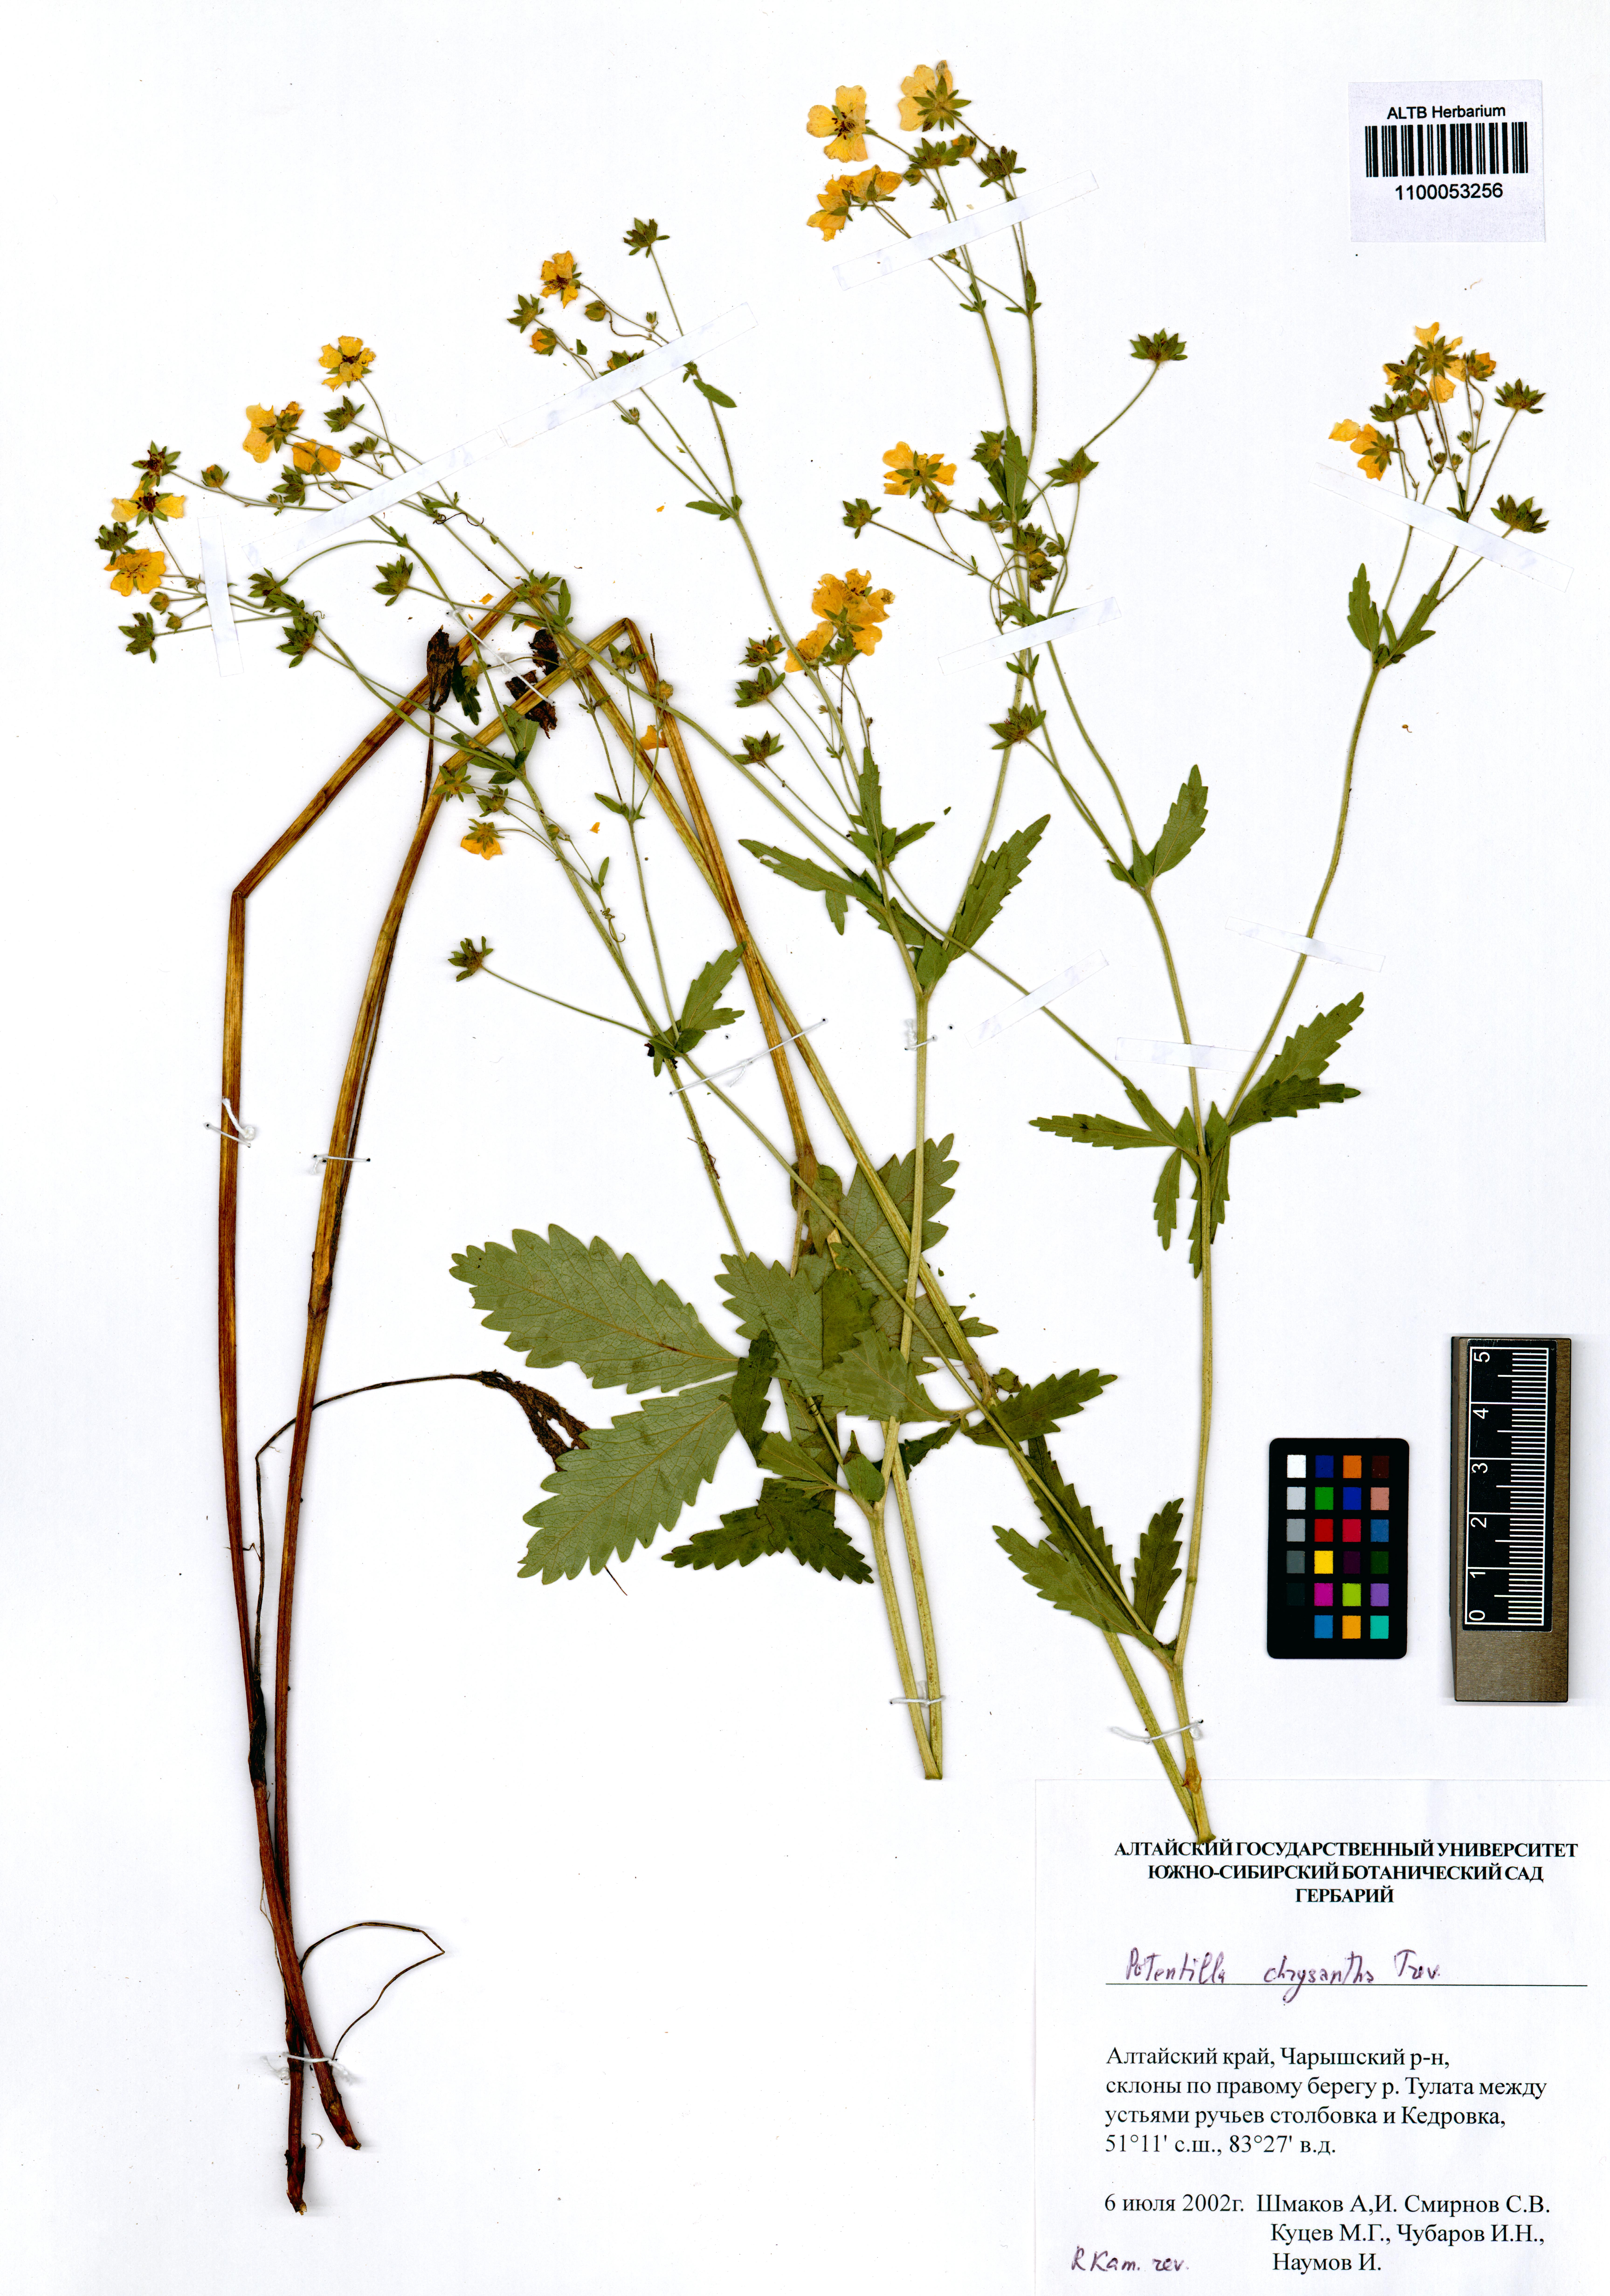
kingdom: Plantae
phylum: Tracheophyta
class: Magnoliopsida
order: Rosales
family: Rosaceae
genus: Potentilla
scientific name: Potentilla chrysantha
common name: Thuringian cinquefoil
